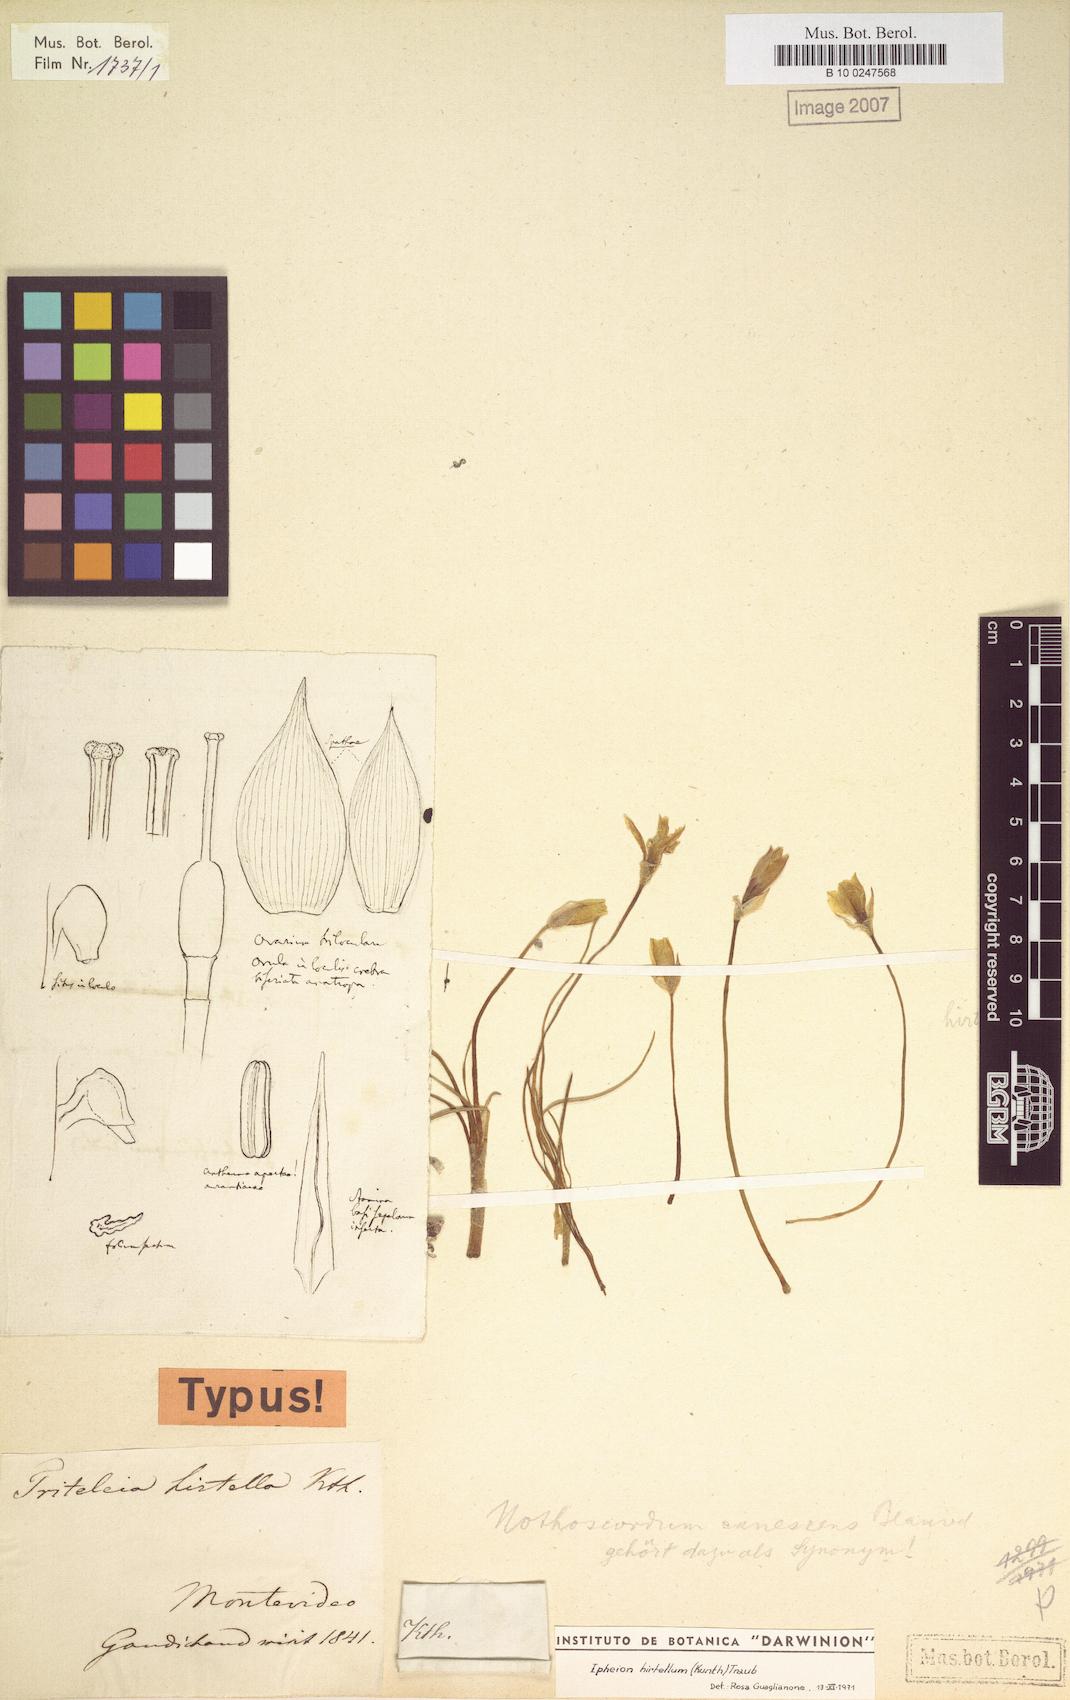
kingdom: Plantae
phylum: Tracheophyta
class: Liliopsida
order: Asparagales
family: Amaryllidaceae
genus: Nothoscordum
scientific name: Nothoscordum hirtellum
